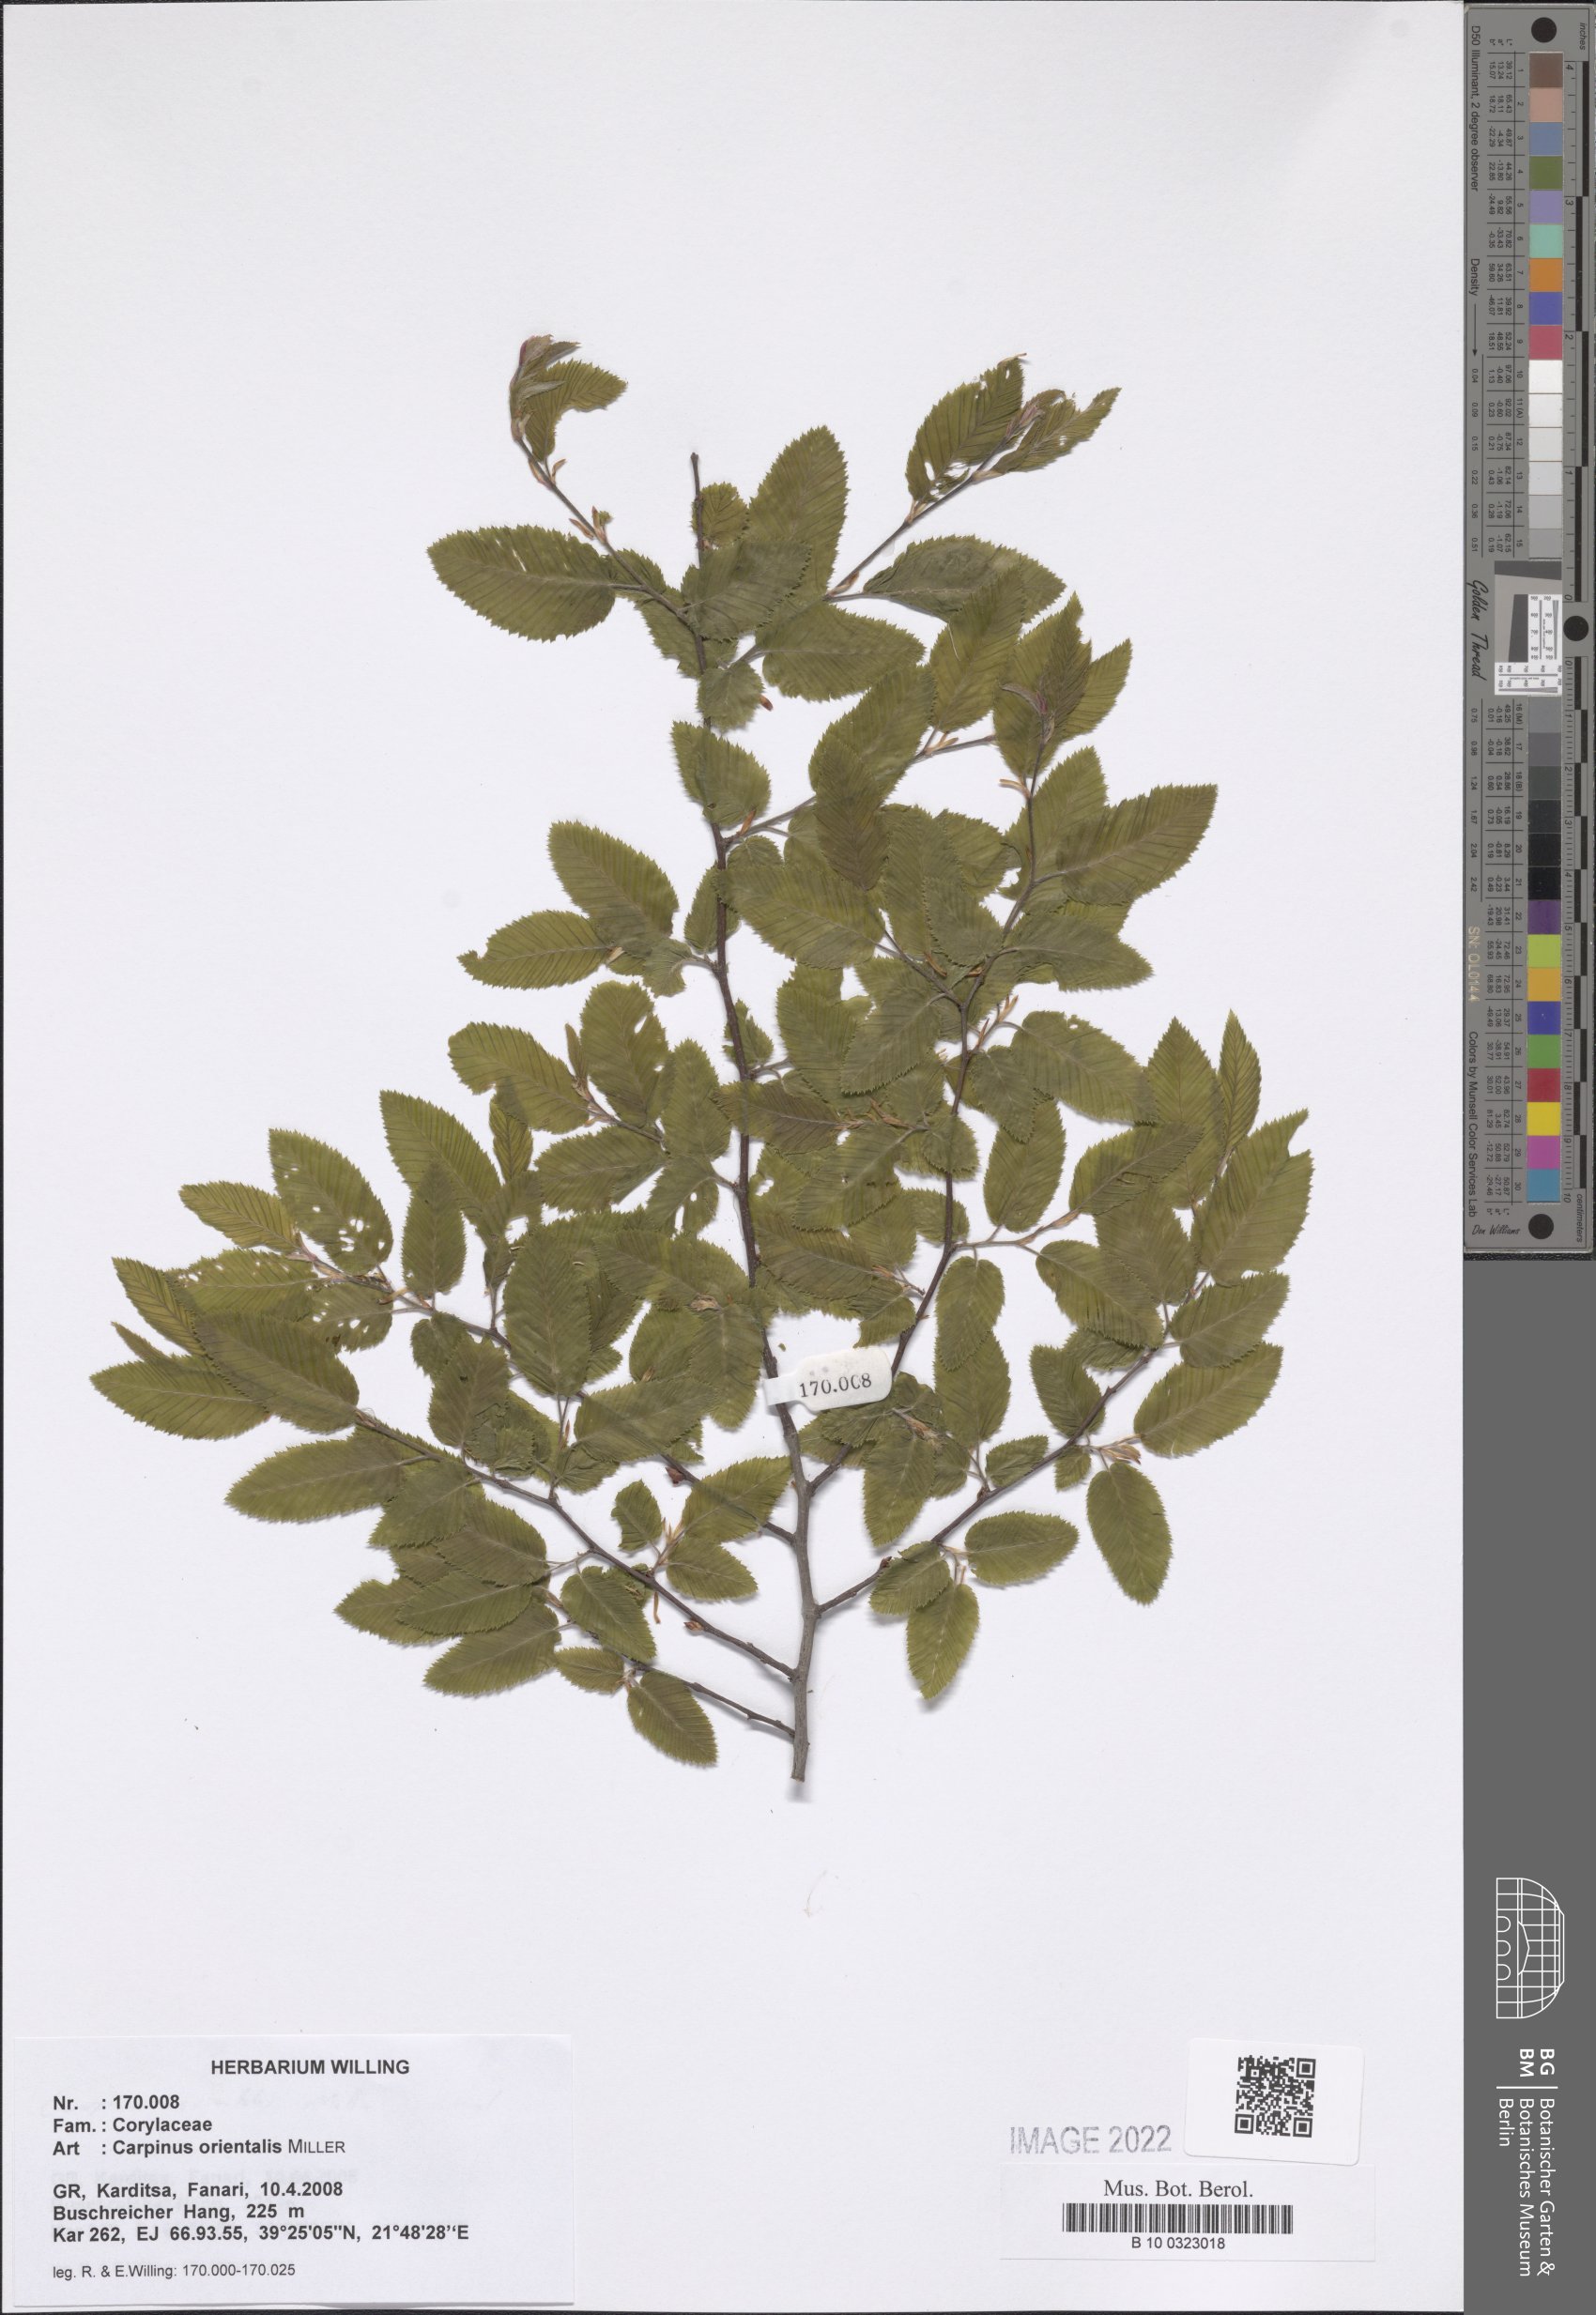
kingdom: Plantae
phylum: Tracheophyta
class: Magnoliopsida
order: Fagales
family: Betulaceae
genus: Carpinus
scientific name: Carpinus orientalis
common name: Eastern hornbeam
